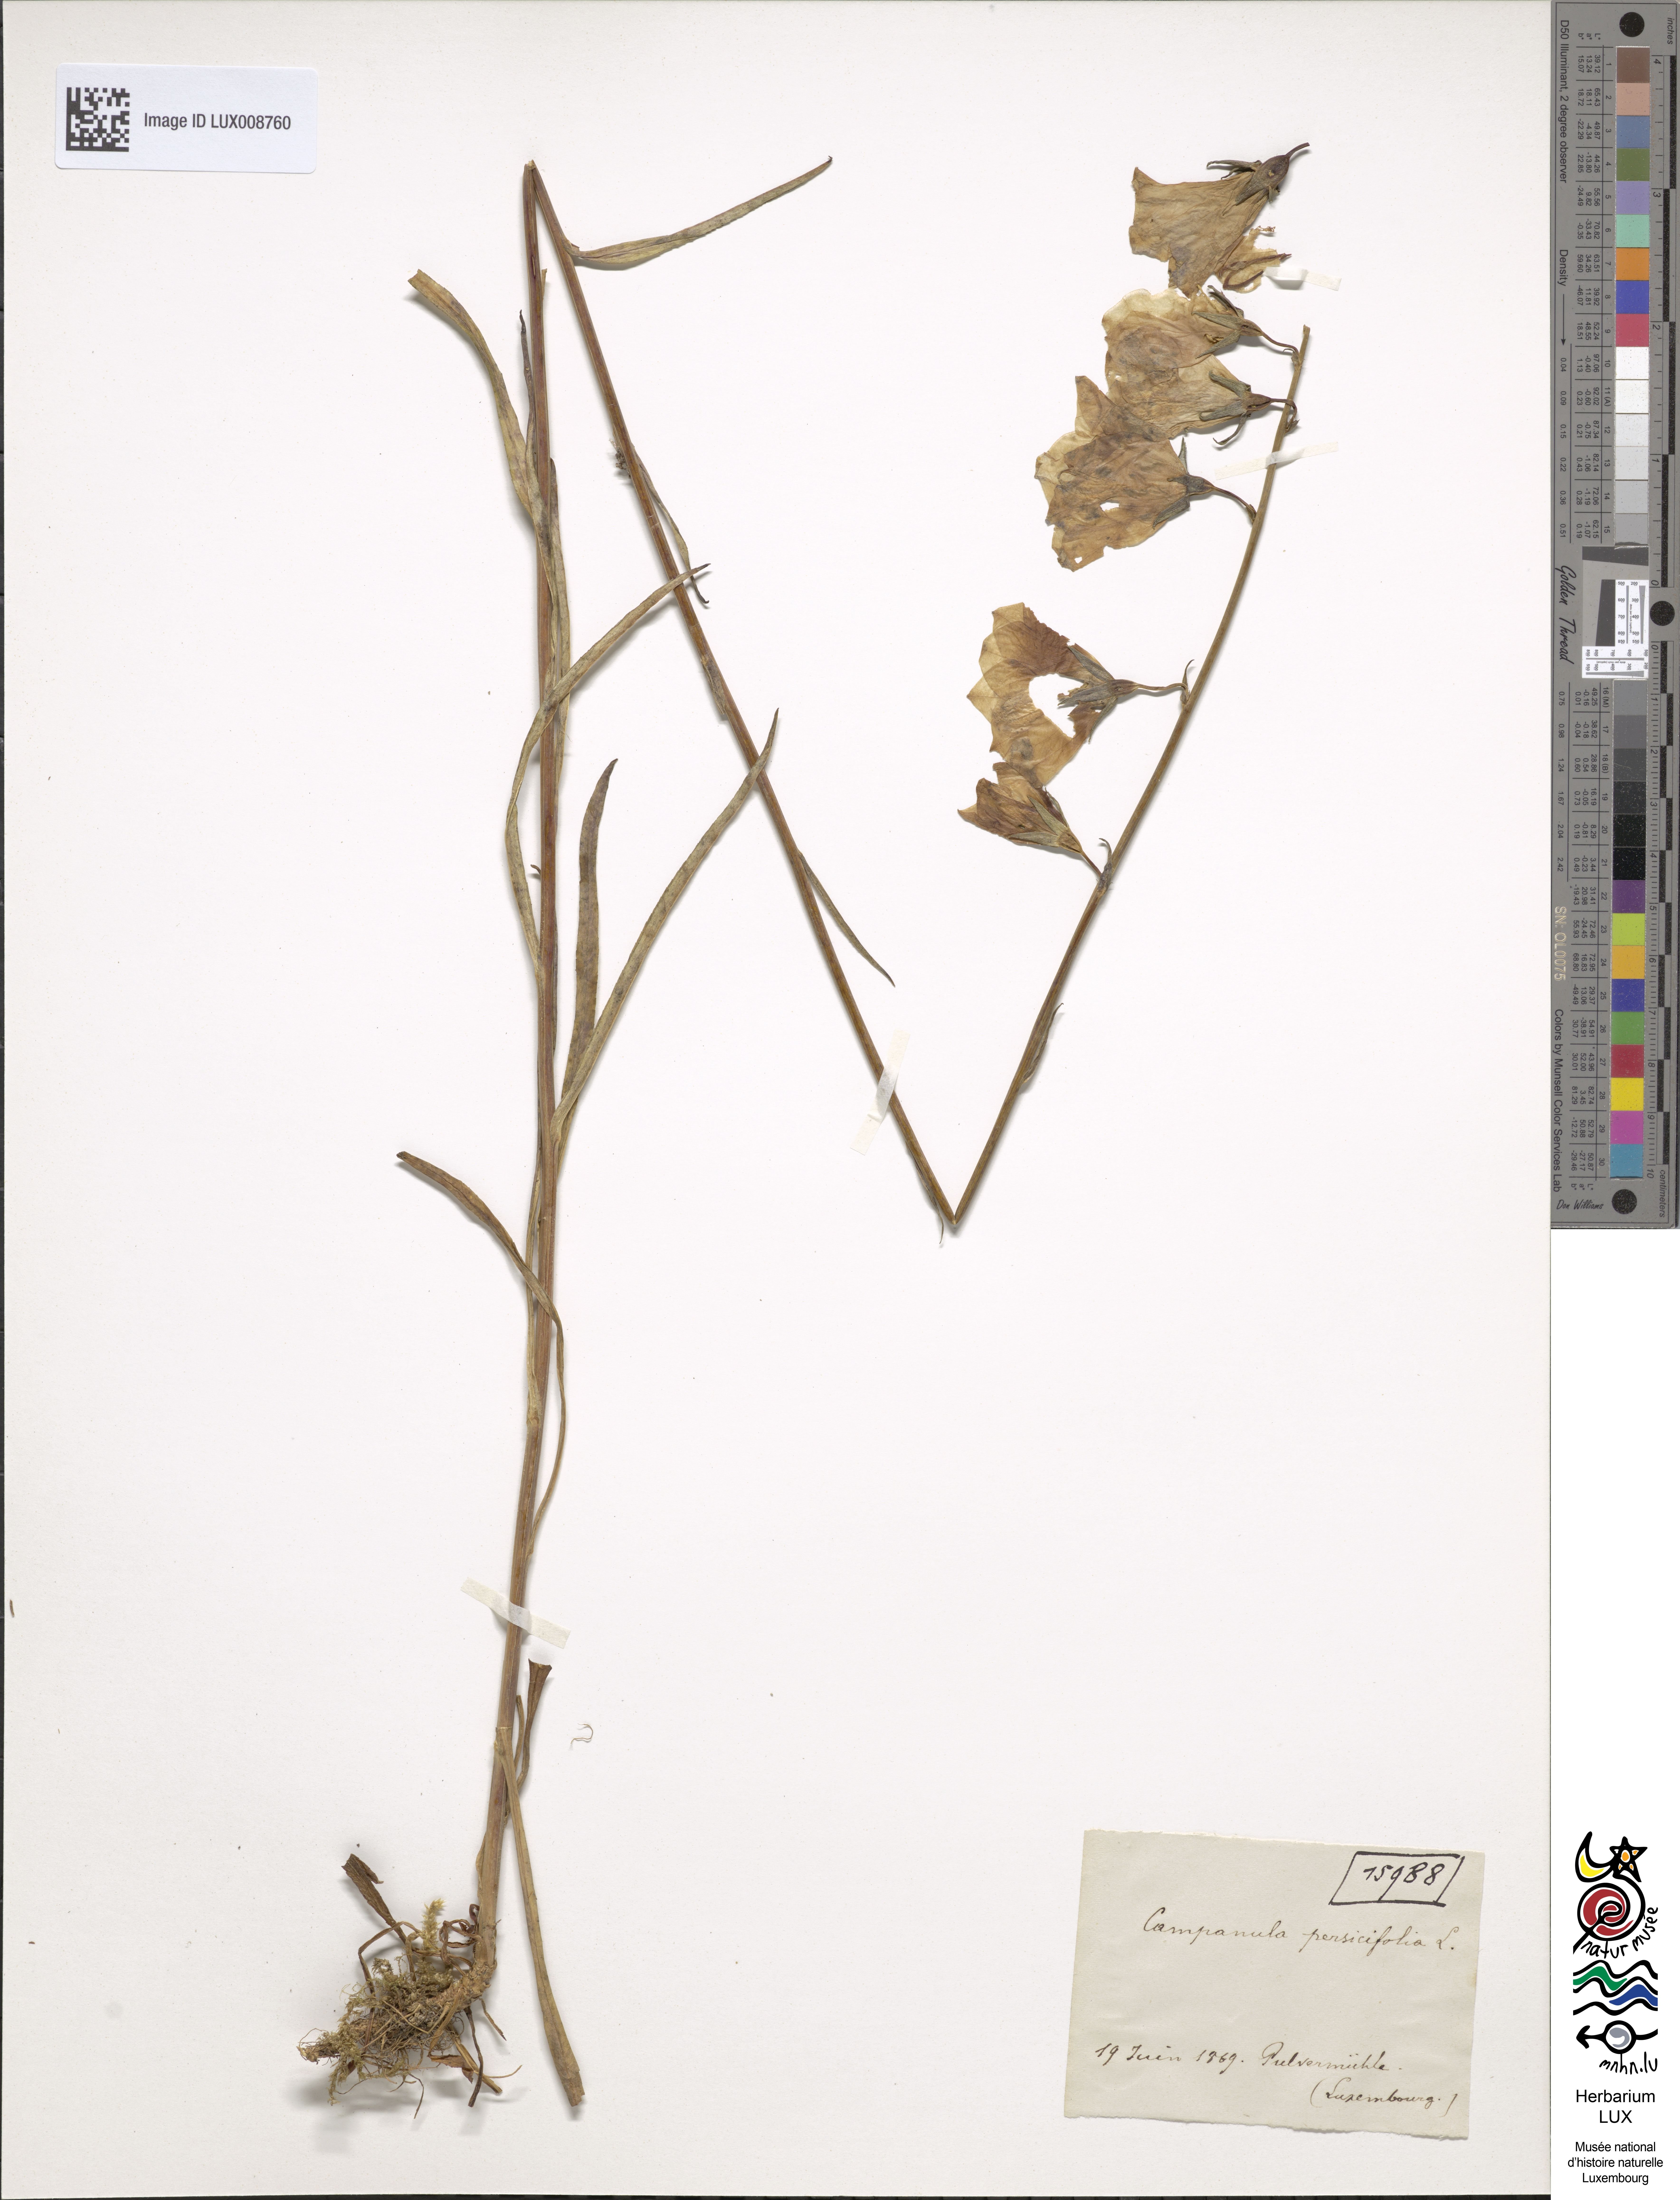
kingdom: Plantae
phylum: Tracheophyta
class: Magnoliopsida
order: Asterales
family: Campanulaceae
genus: Campanula
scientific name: Campanula persicifolia
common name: Peach-leaved bellflower
